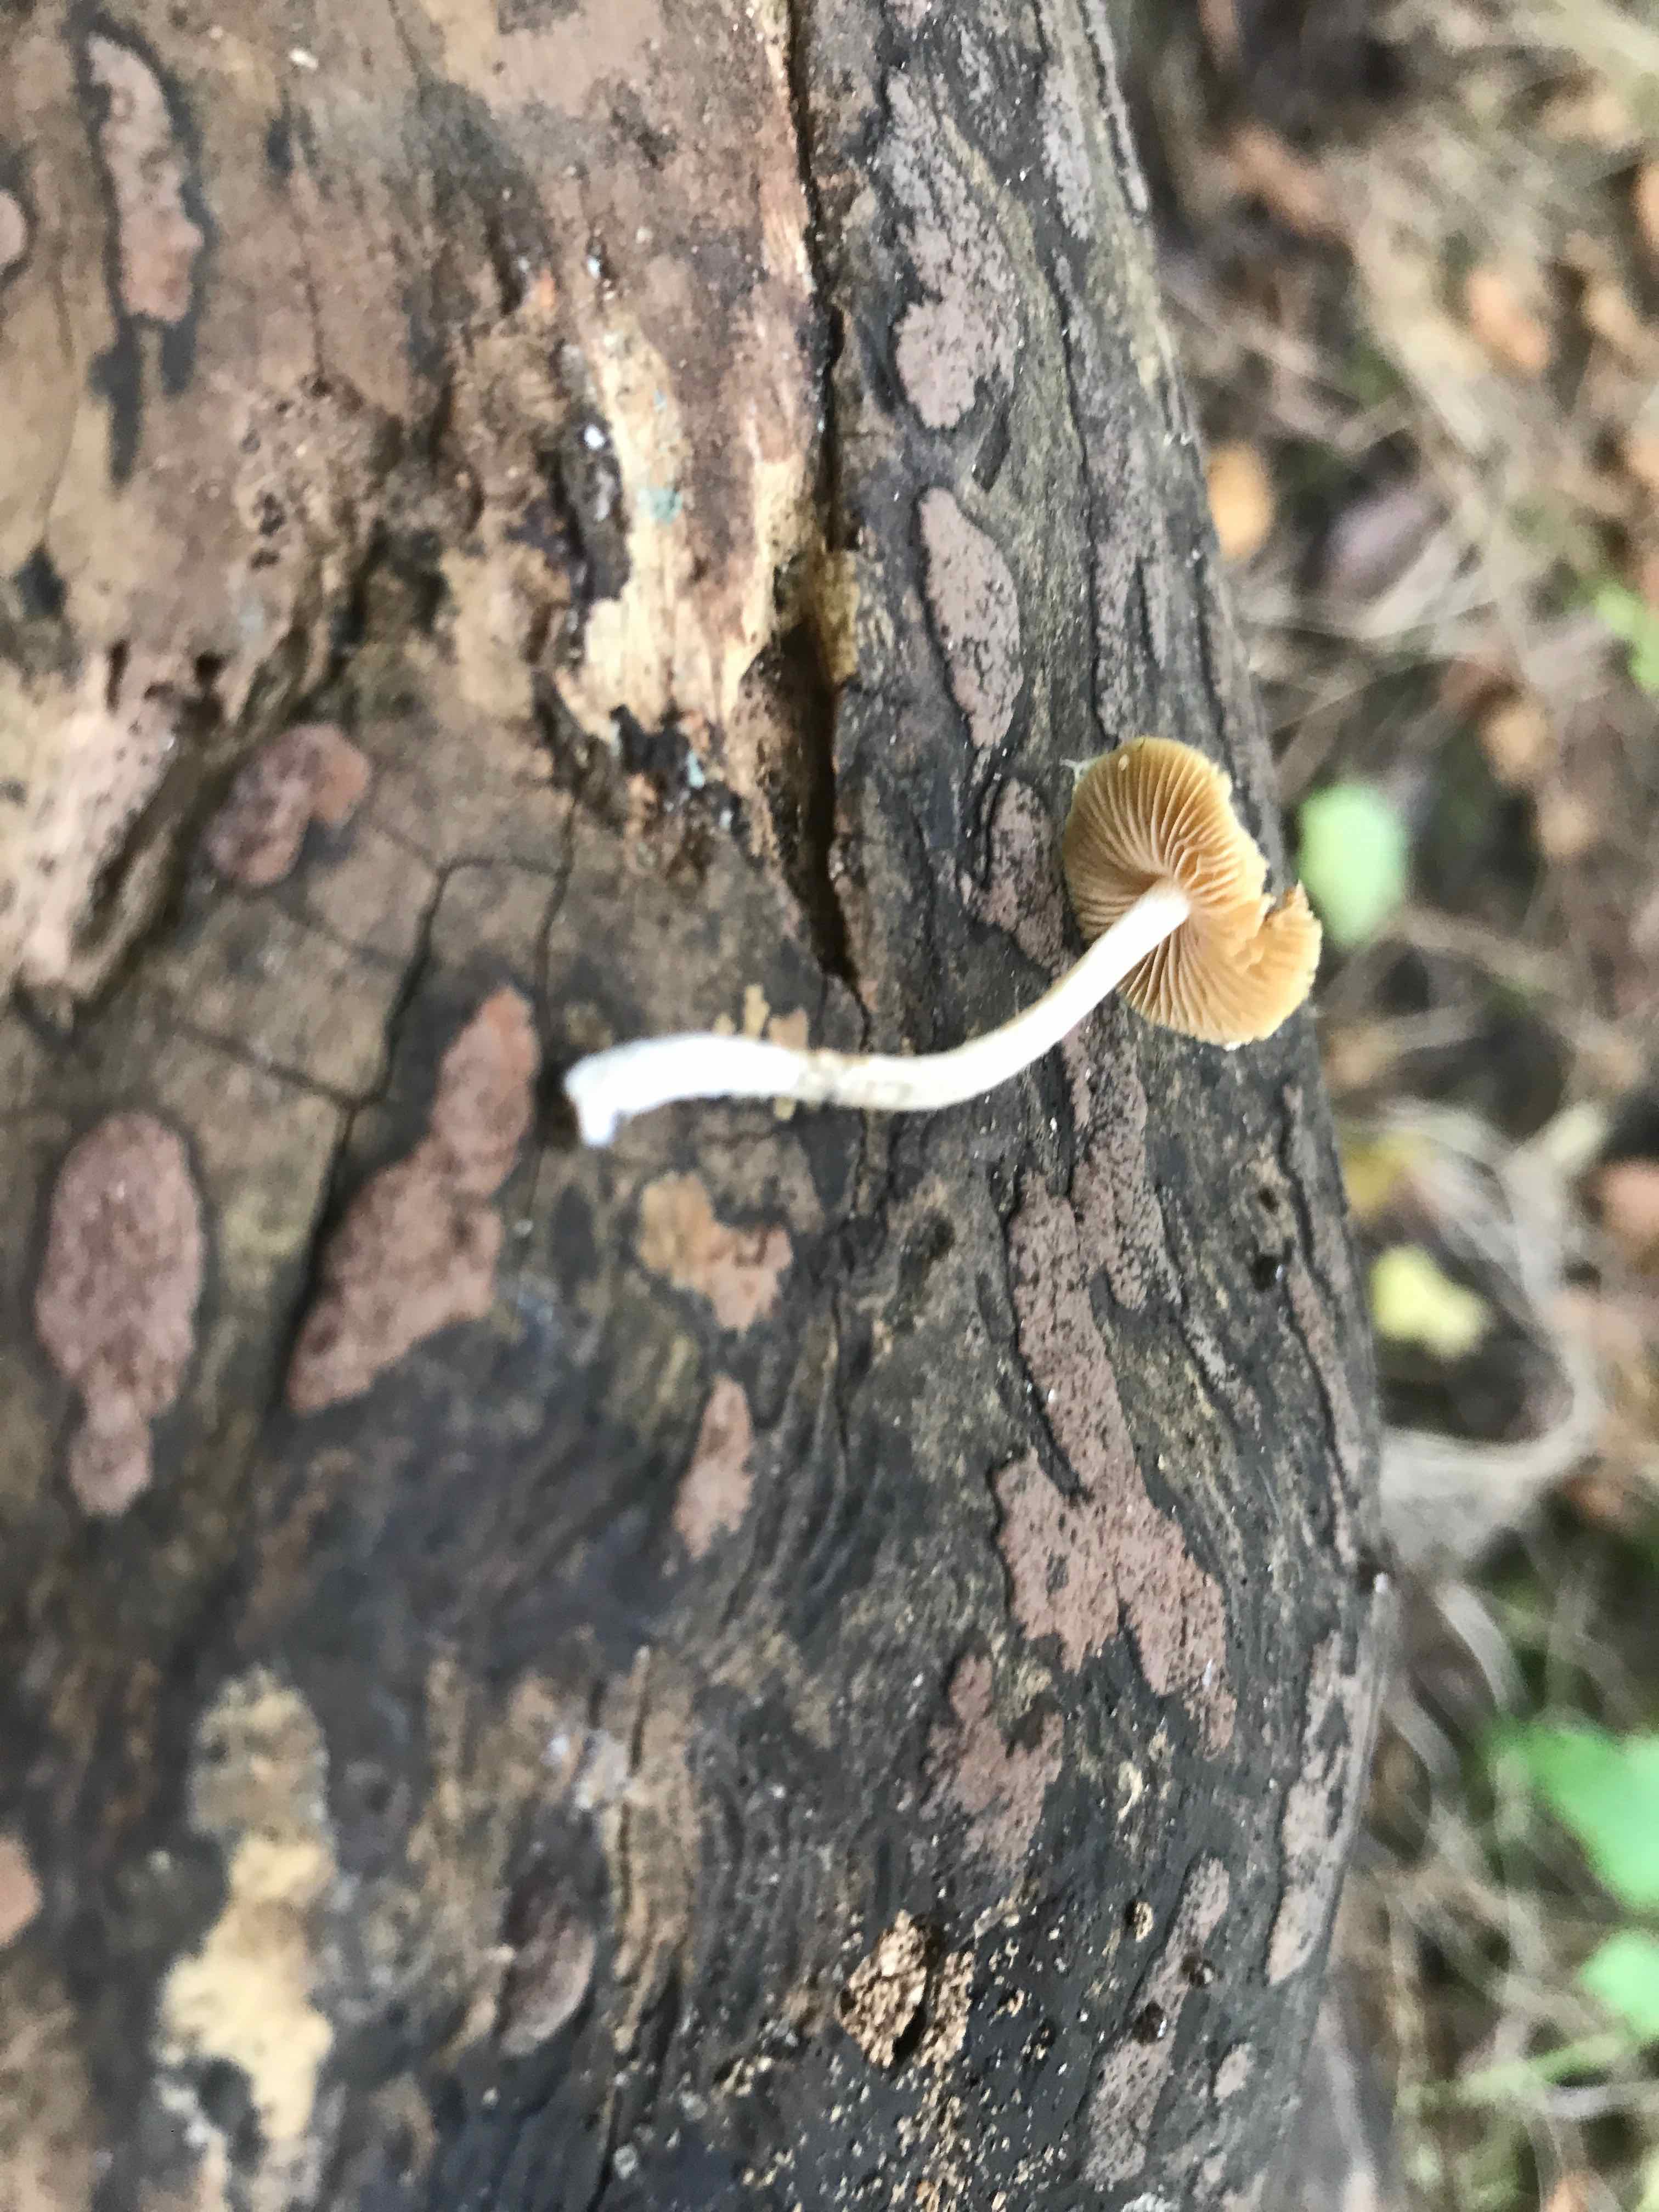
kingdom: Fungi
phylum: Basidiomycota
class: Agaricomycetes
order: Agaricales
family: Bolbitiaceae
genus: Pholiotina
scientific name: Pholiotina
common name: dansehat
